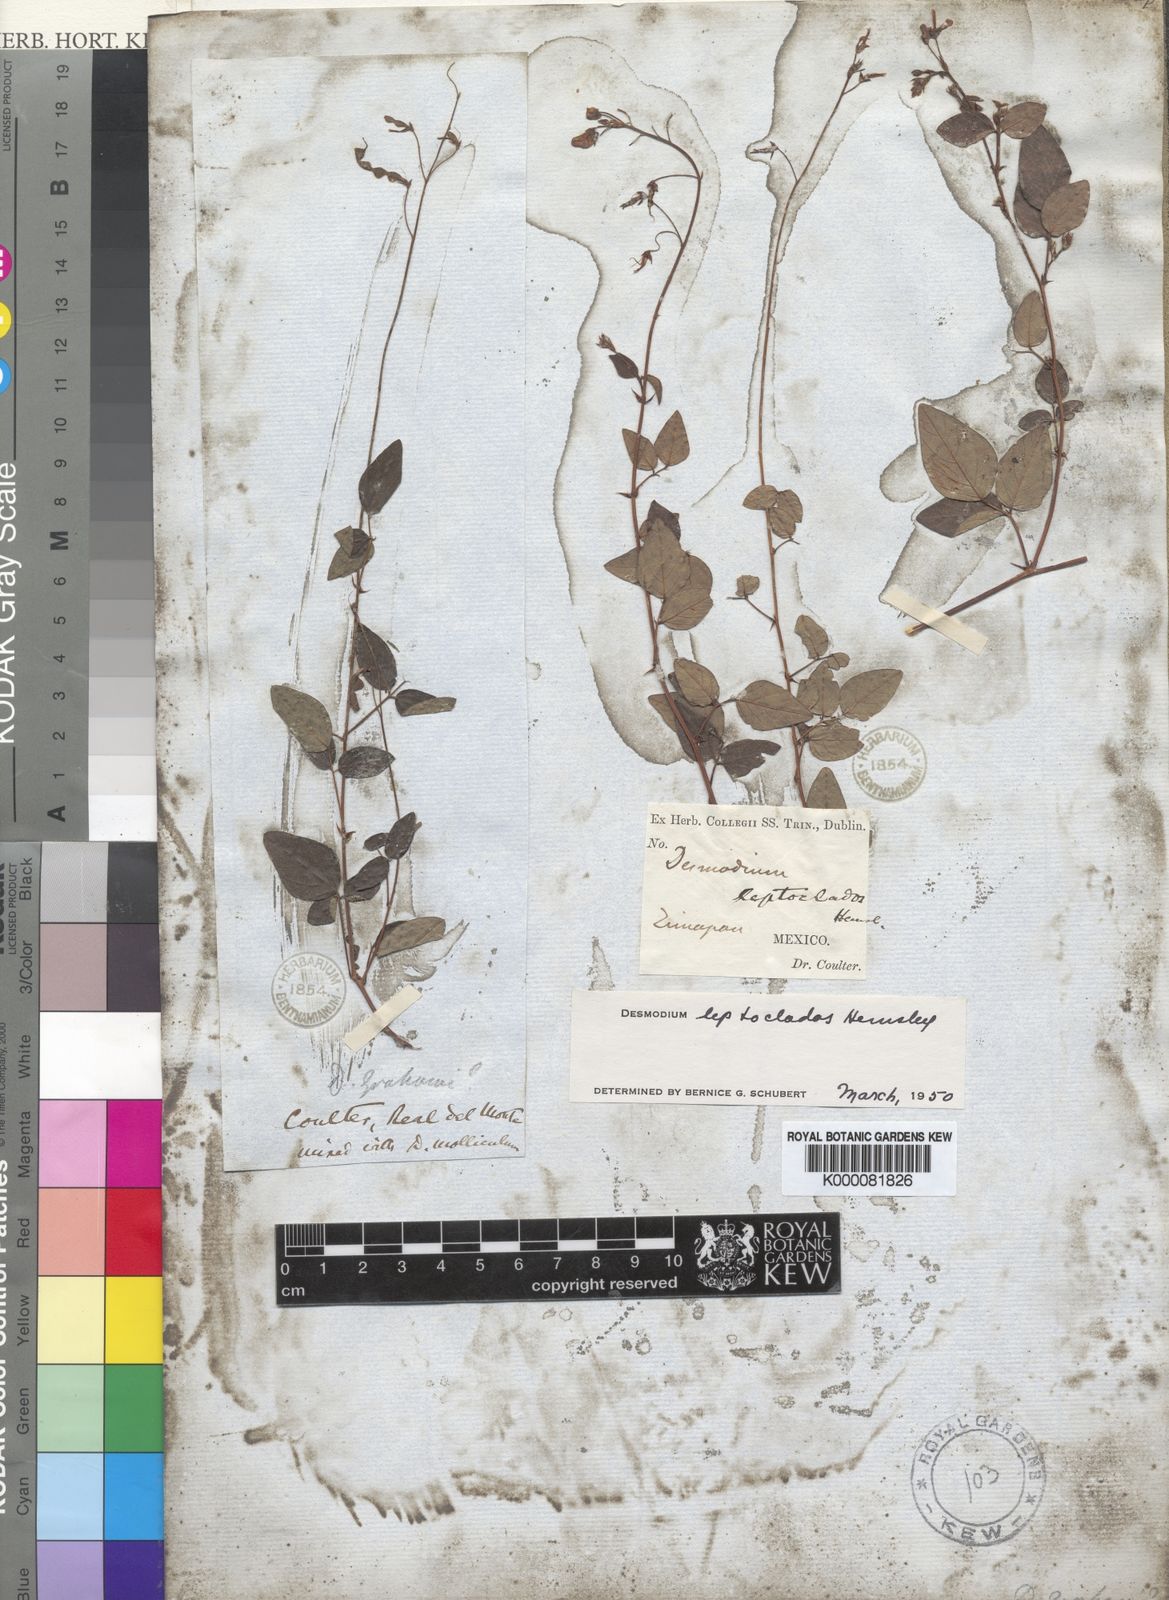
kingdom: Plantae
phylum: Tracheophyta
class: Magnoliopsida
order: Fabales
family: Fabaceae
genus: Desmodium
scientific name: Desmodium leptoclados
